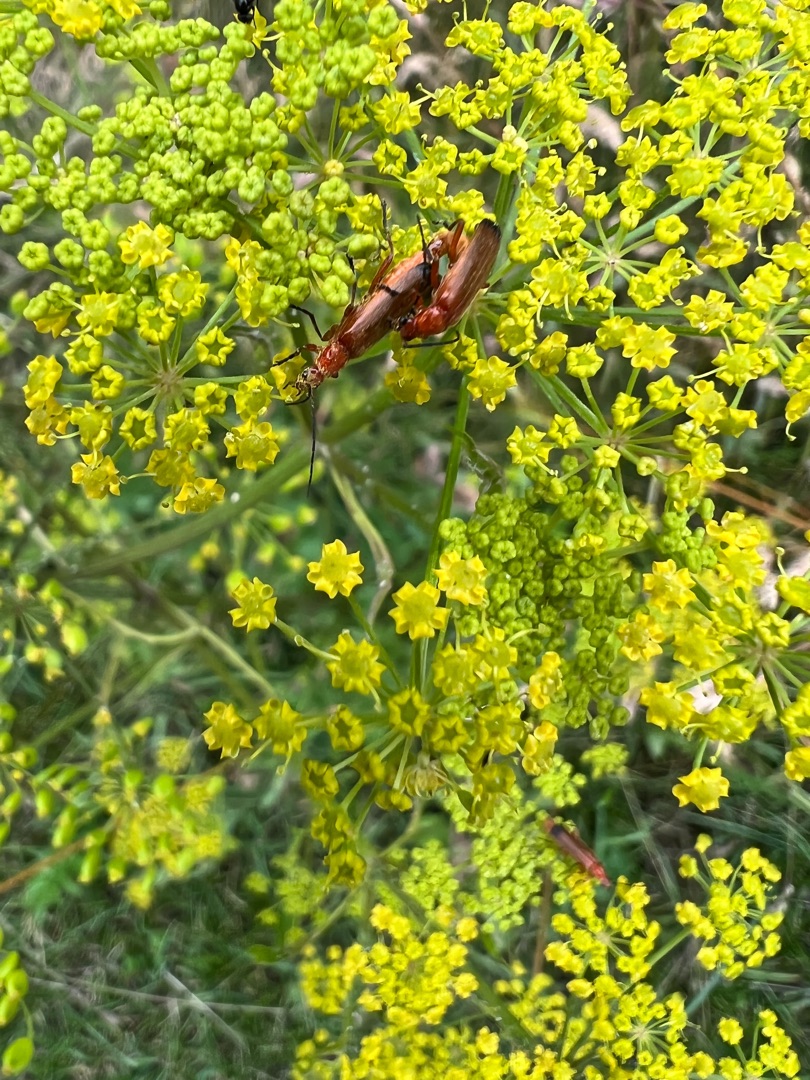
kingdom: Animalia
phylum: Arthropoda
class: Insecta
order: Coleoptera
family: Cantharidae
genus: Rhagonycha
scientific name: Rhagonycha fulva
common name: Præstebille
